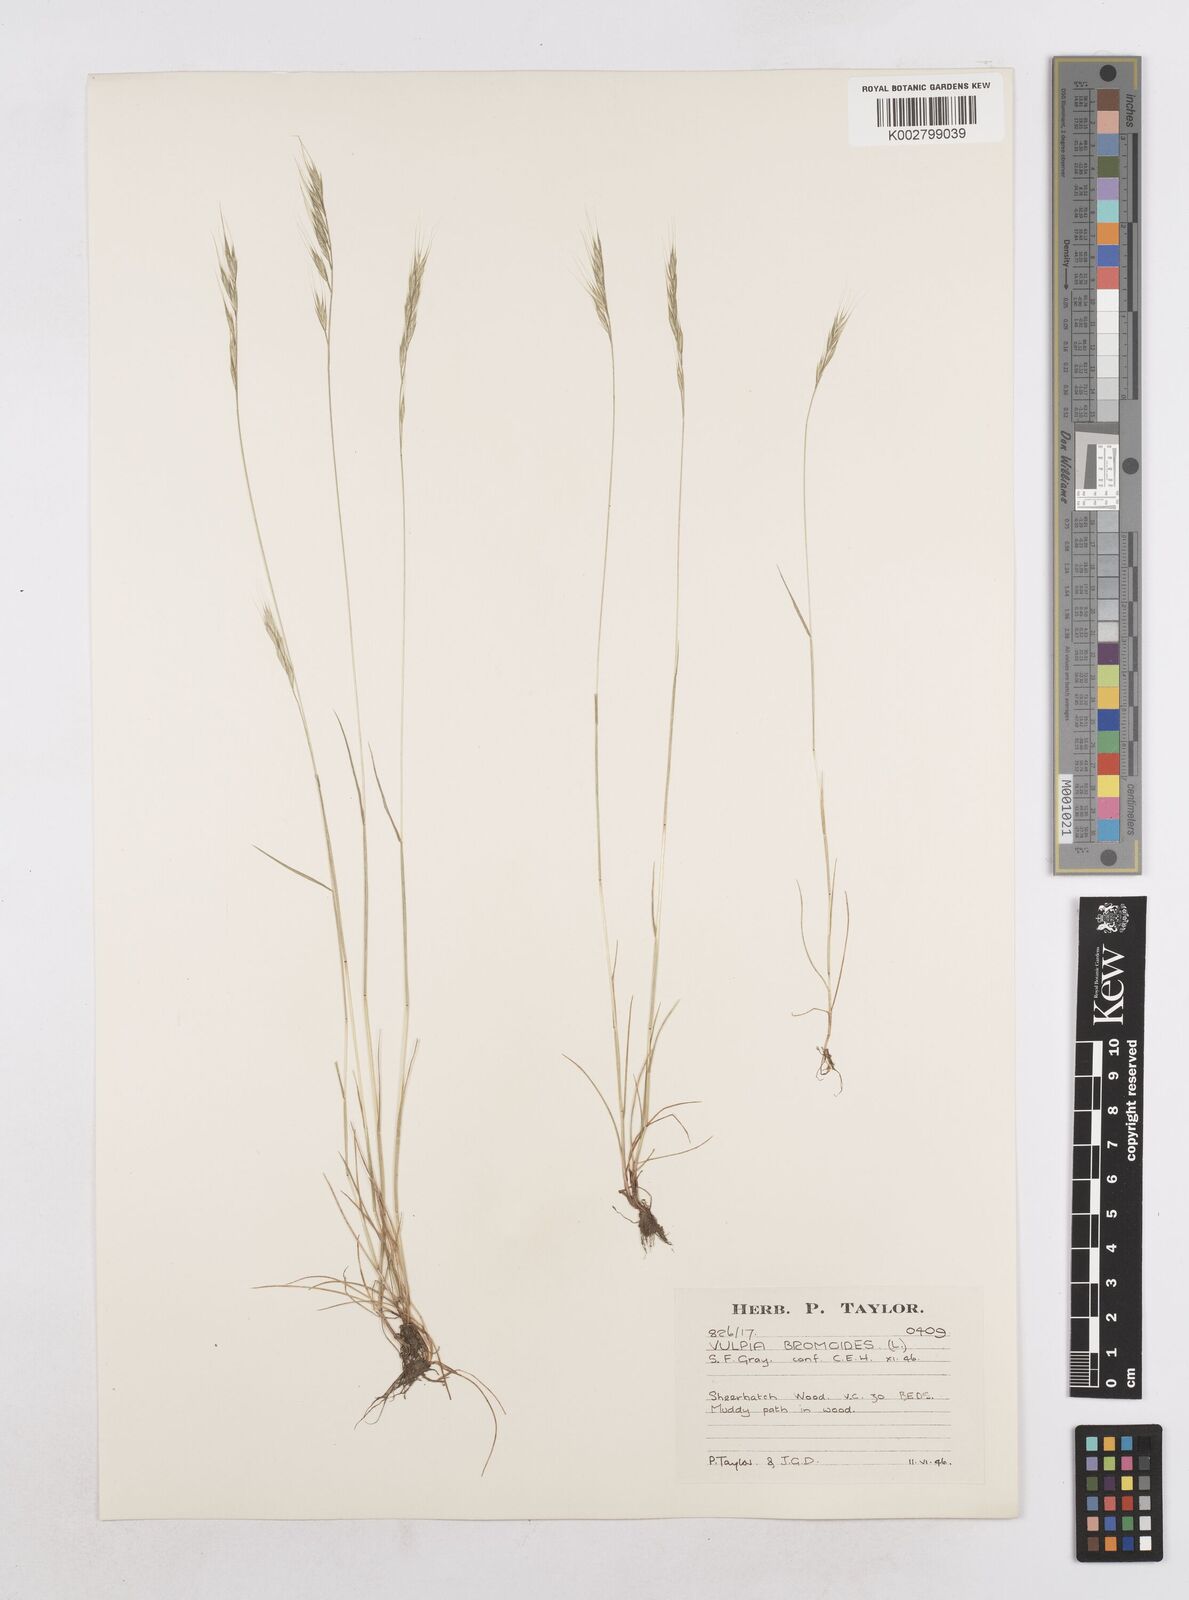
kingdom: Plantae
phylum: Tracheophyta
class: Liliopsida
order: Poales
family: Poaceae
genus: Festuca
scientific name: Festuca bromoides
